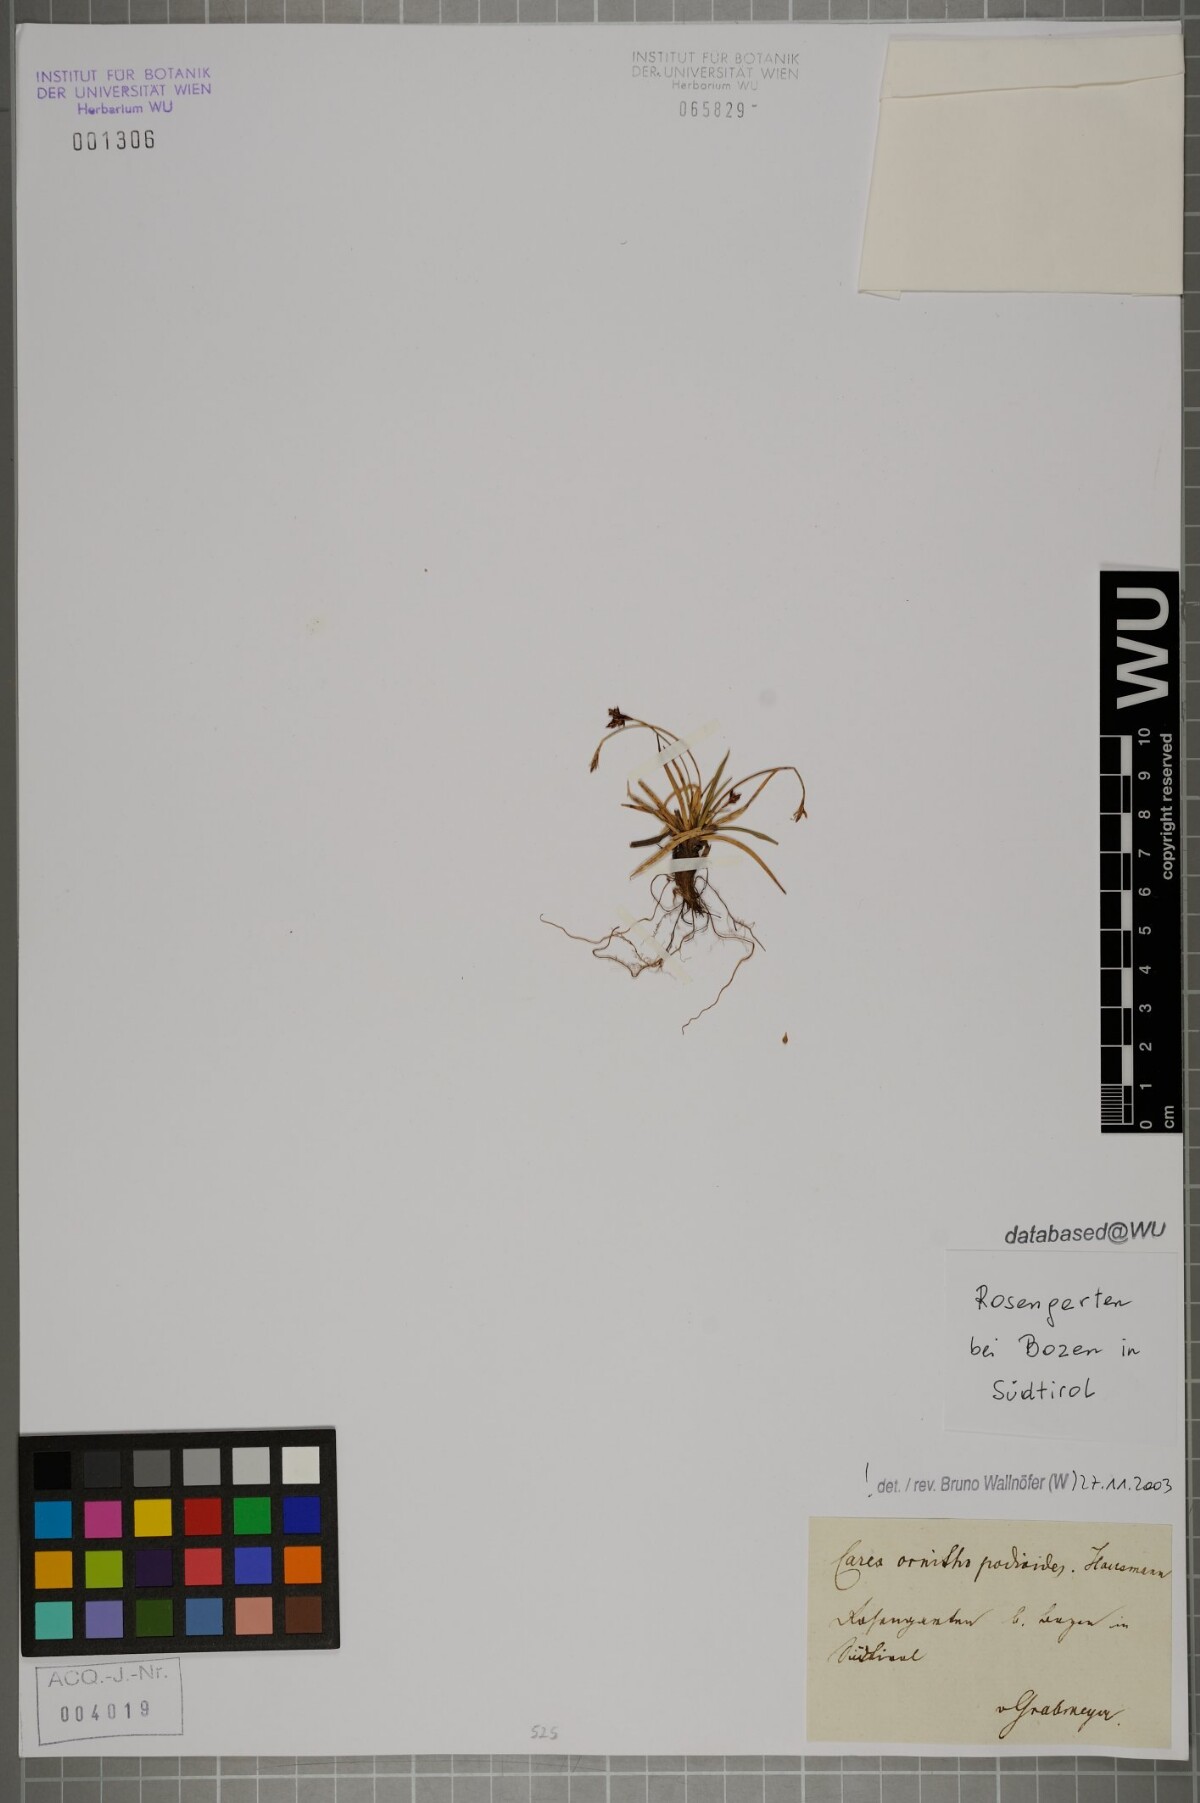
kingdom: Plantae
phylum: Tracheophyta
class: Liliopsida
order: Poales
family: Cyperaceae
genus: Carex
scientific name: Carex ornithopoda
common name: Bird's-foot sedge
